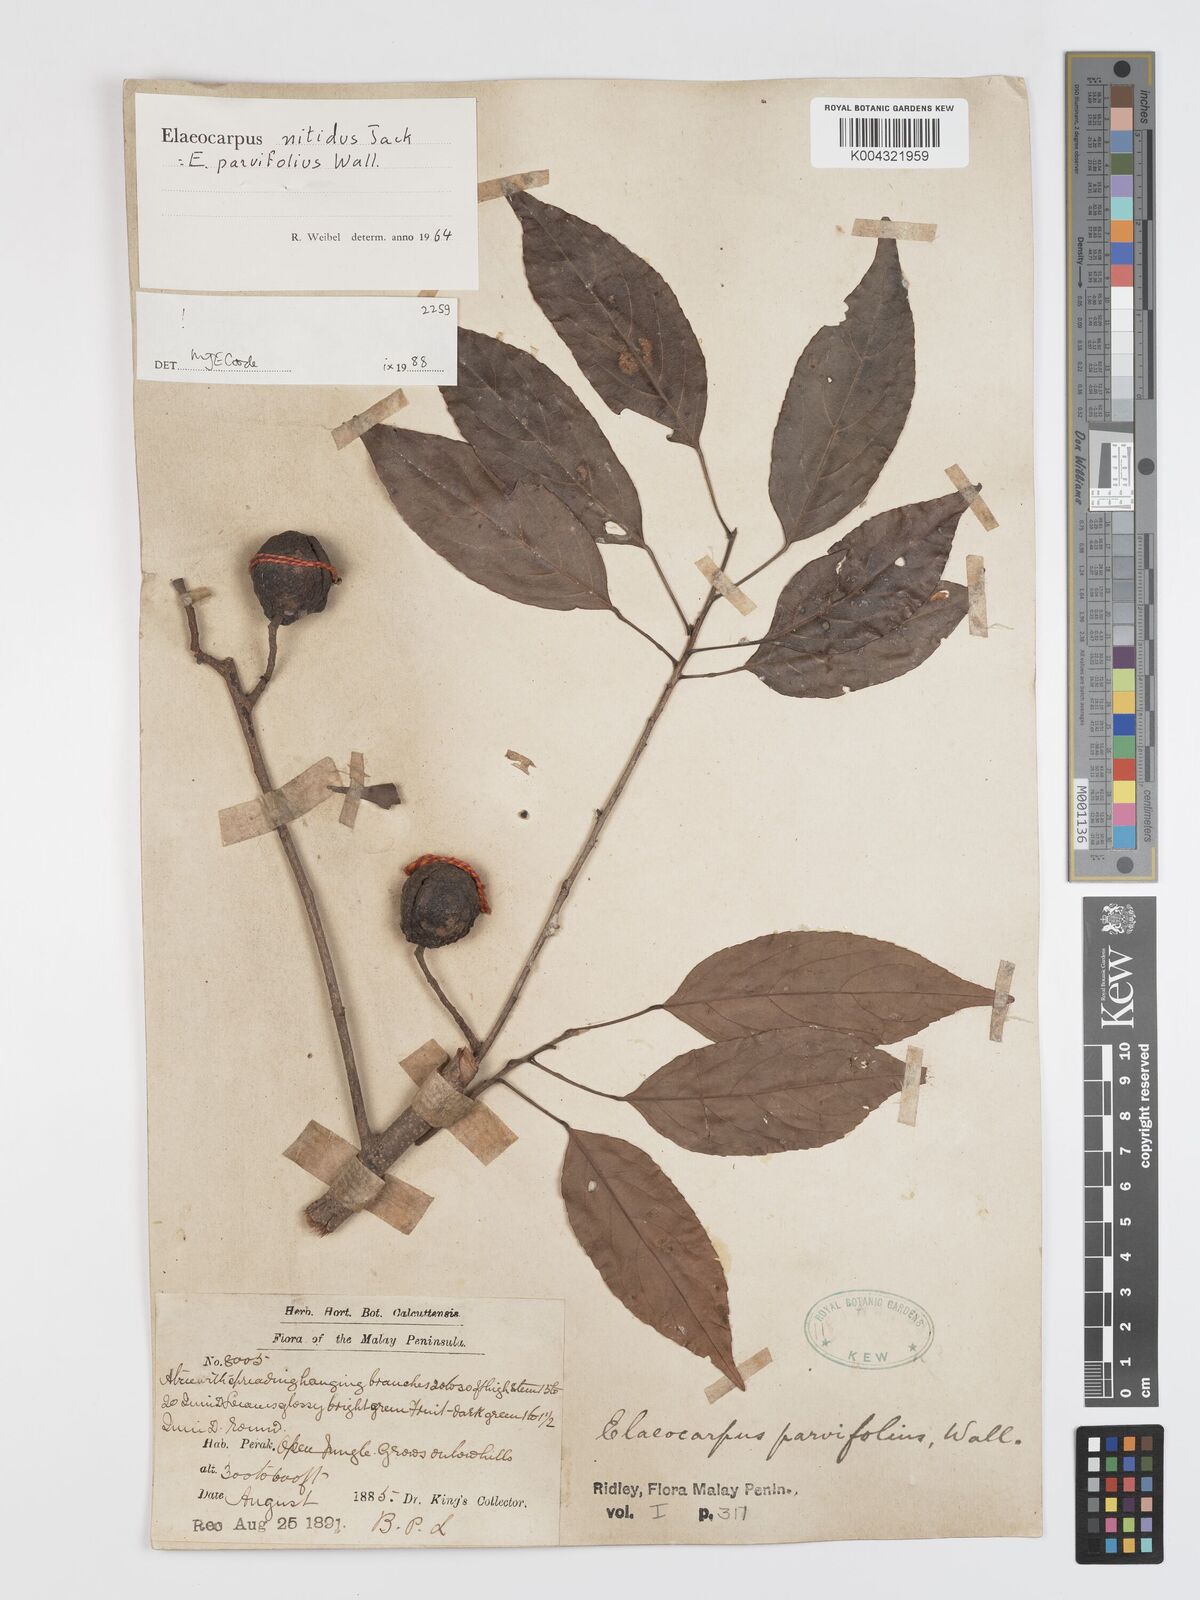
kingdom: Plantae
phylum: Tracheophyta
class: Magnoliopsida
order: Oxalidales
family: Elaeocarpaceae
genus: Elaeocarpus
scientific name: Elaeocarpus nitidus
